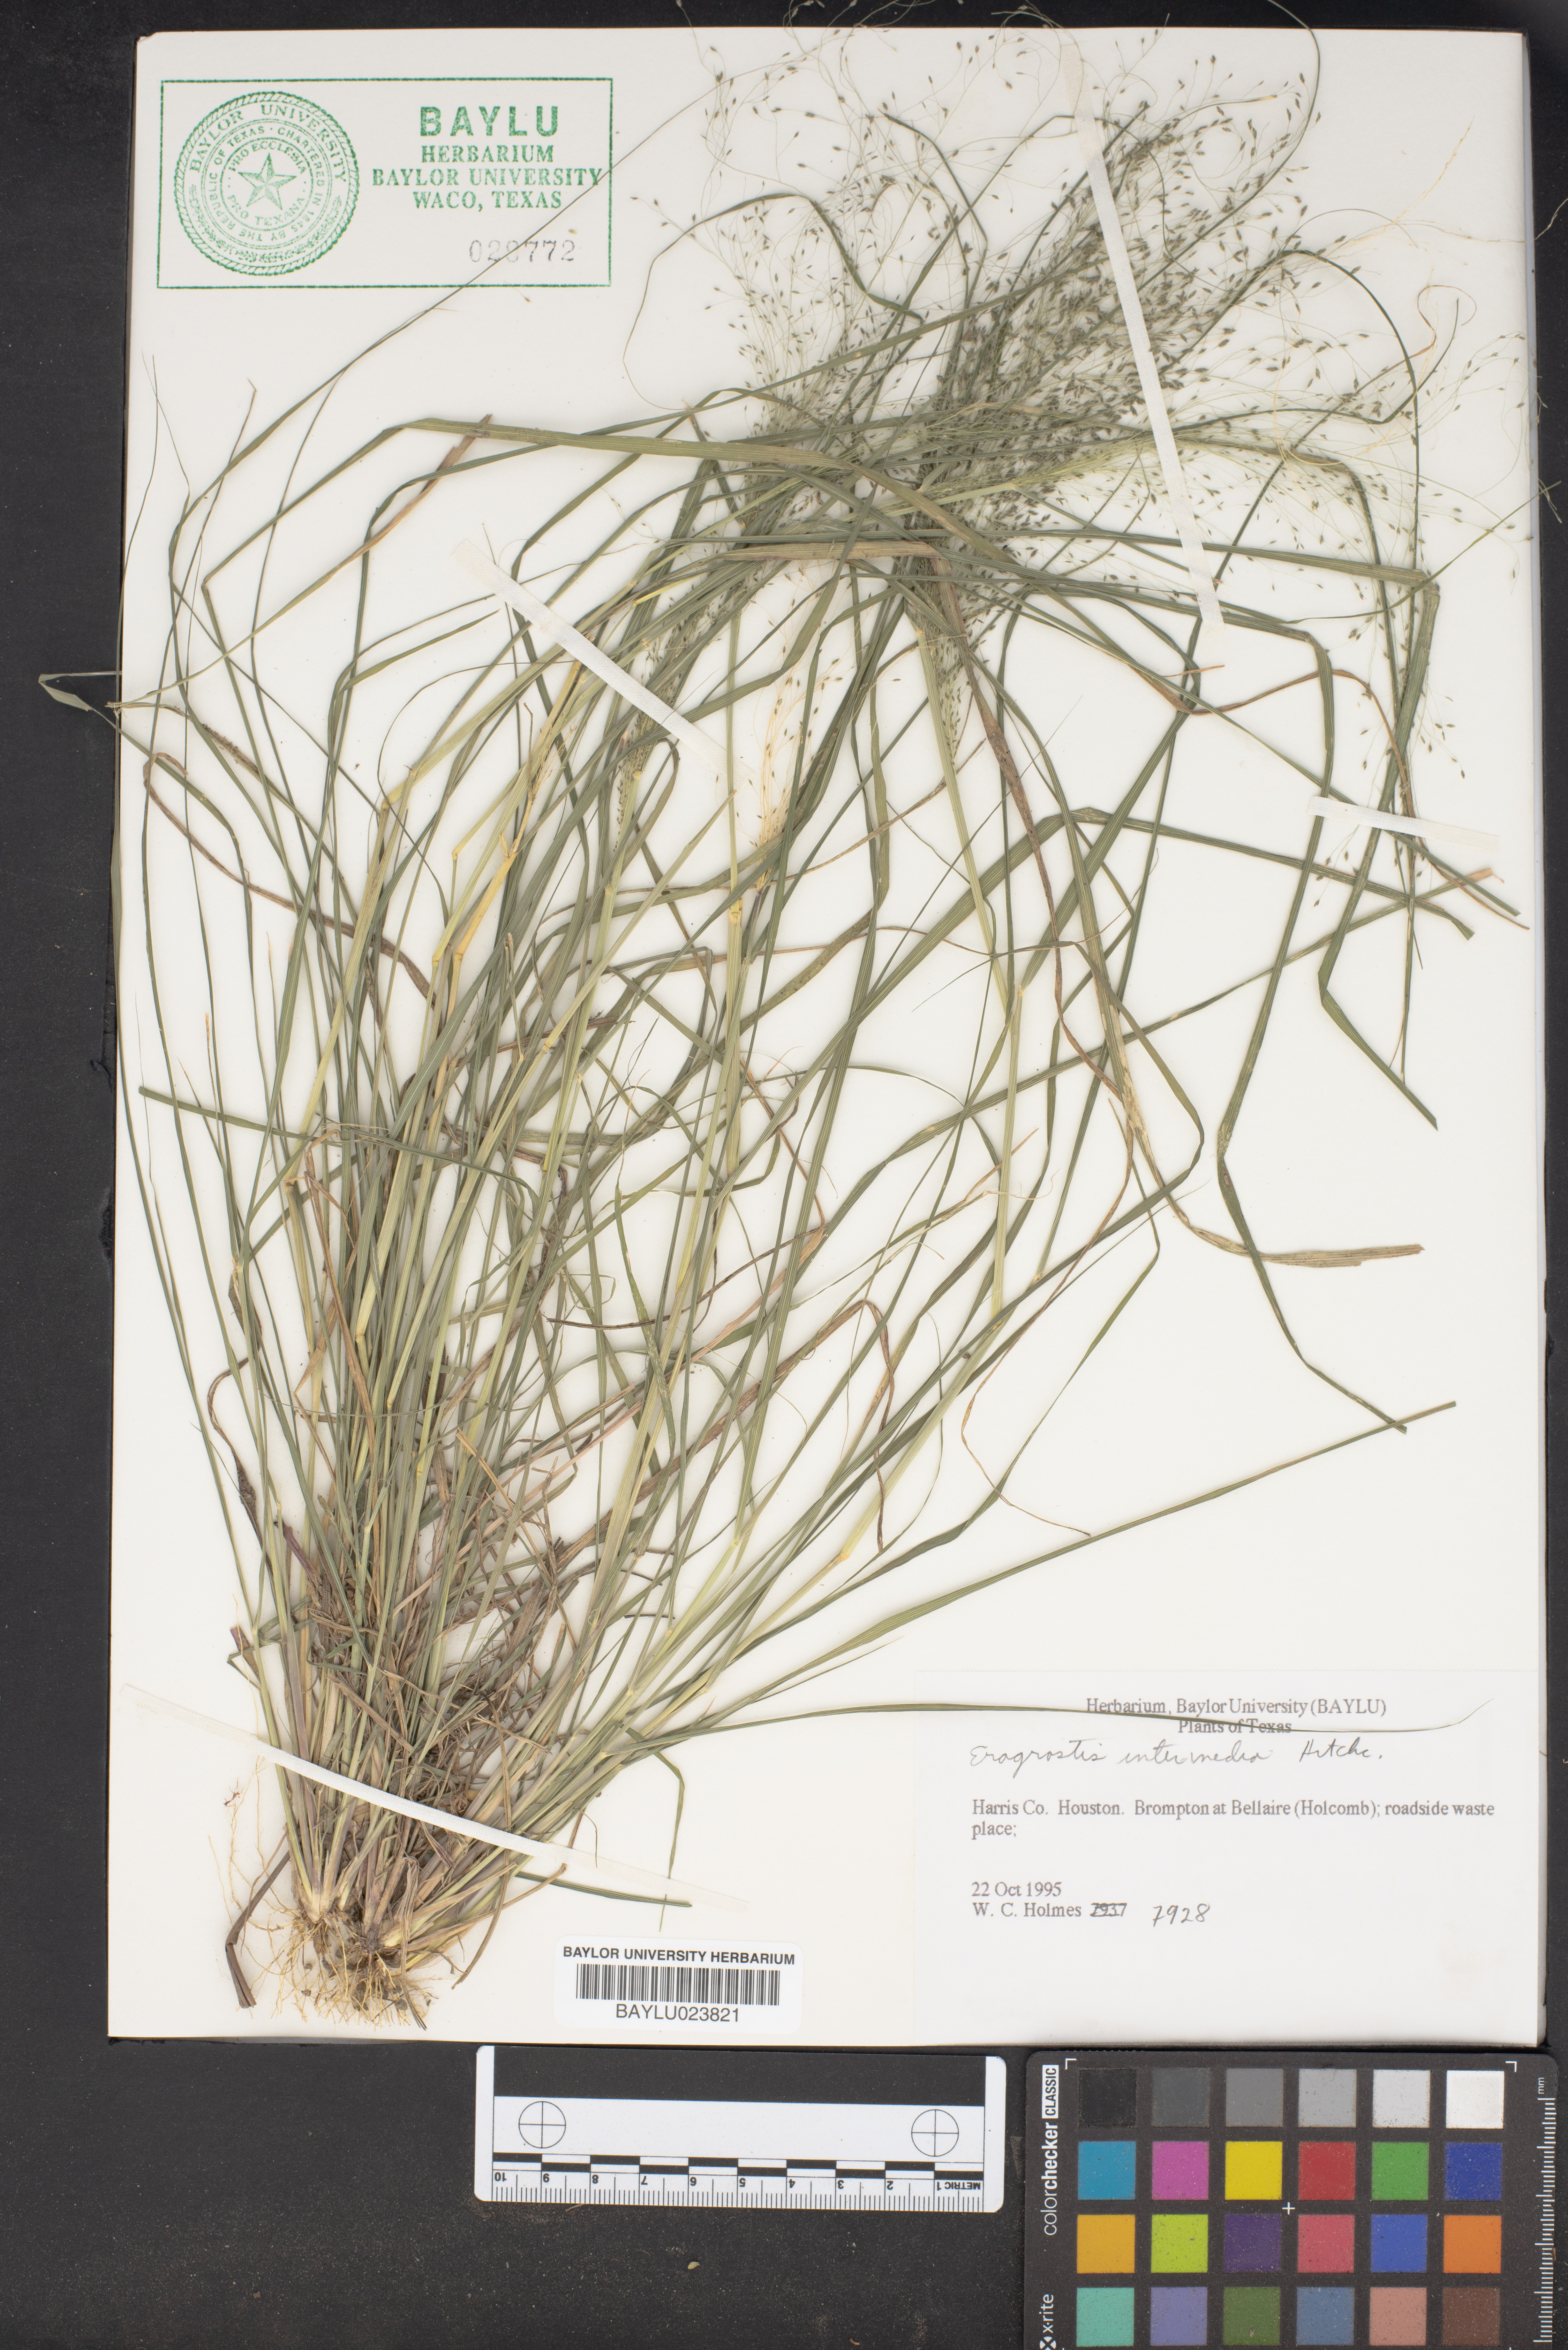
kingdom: Plantae
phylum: Tracheophyta
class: Liliopsida
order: Poales
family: Poaceae
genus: Eragrostis
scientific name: Eragrostis intermedia
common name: Plains love grass
